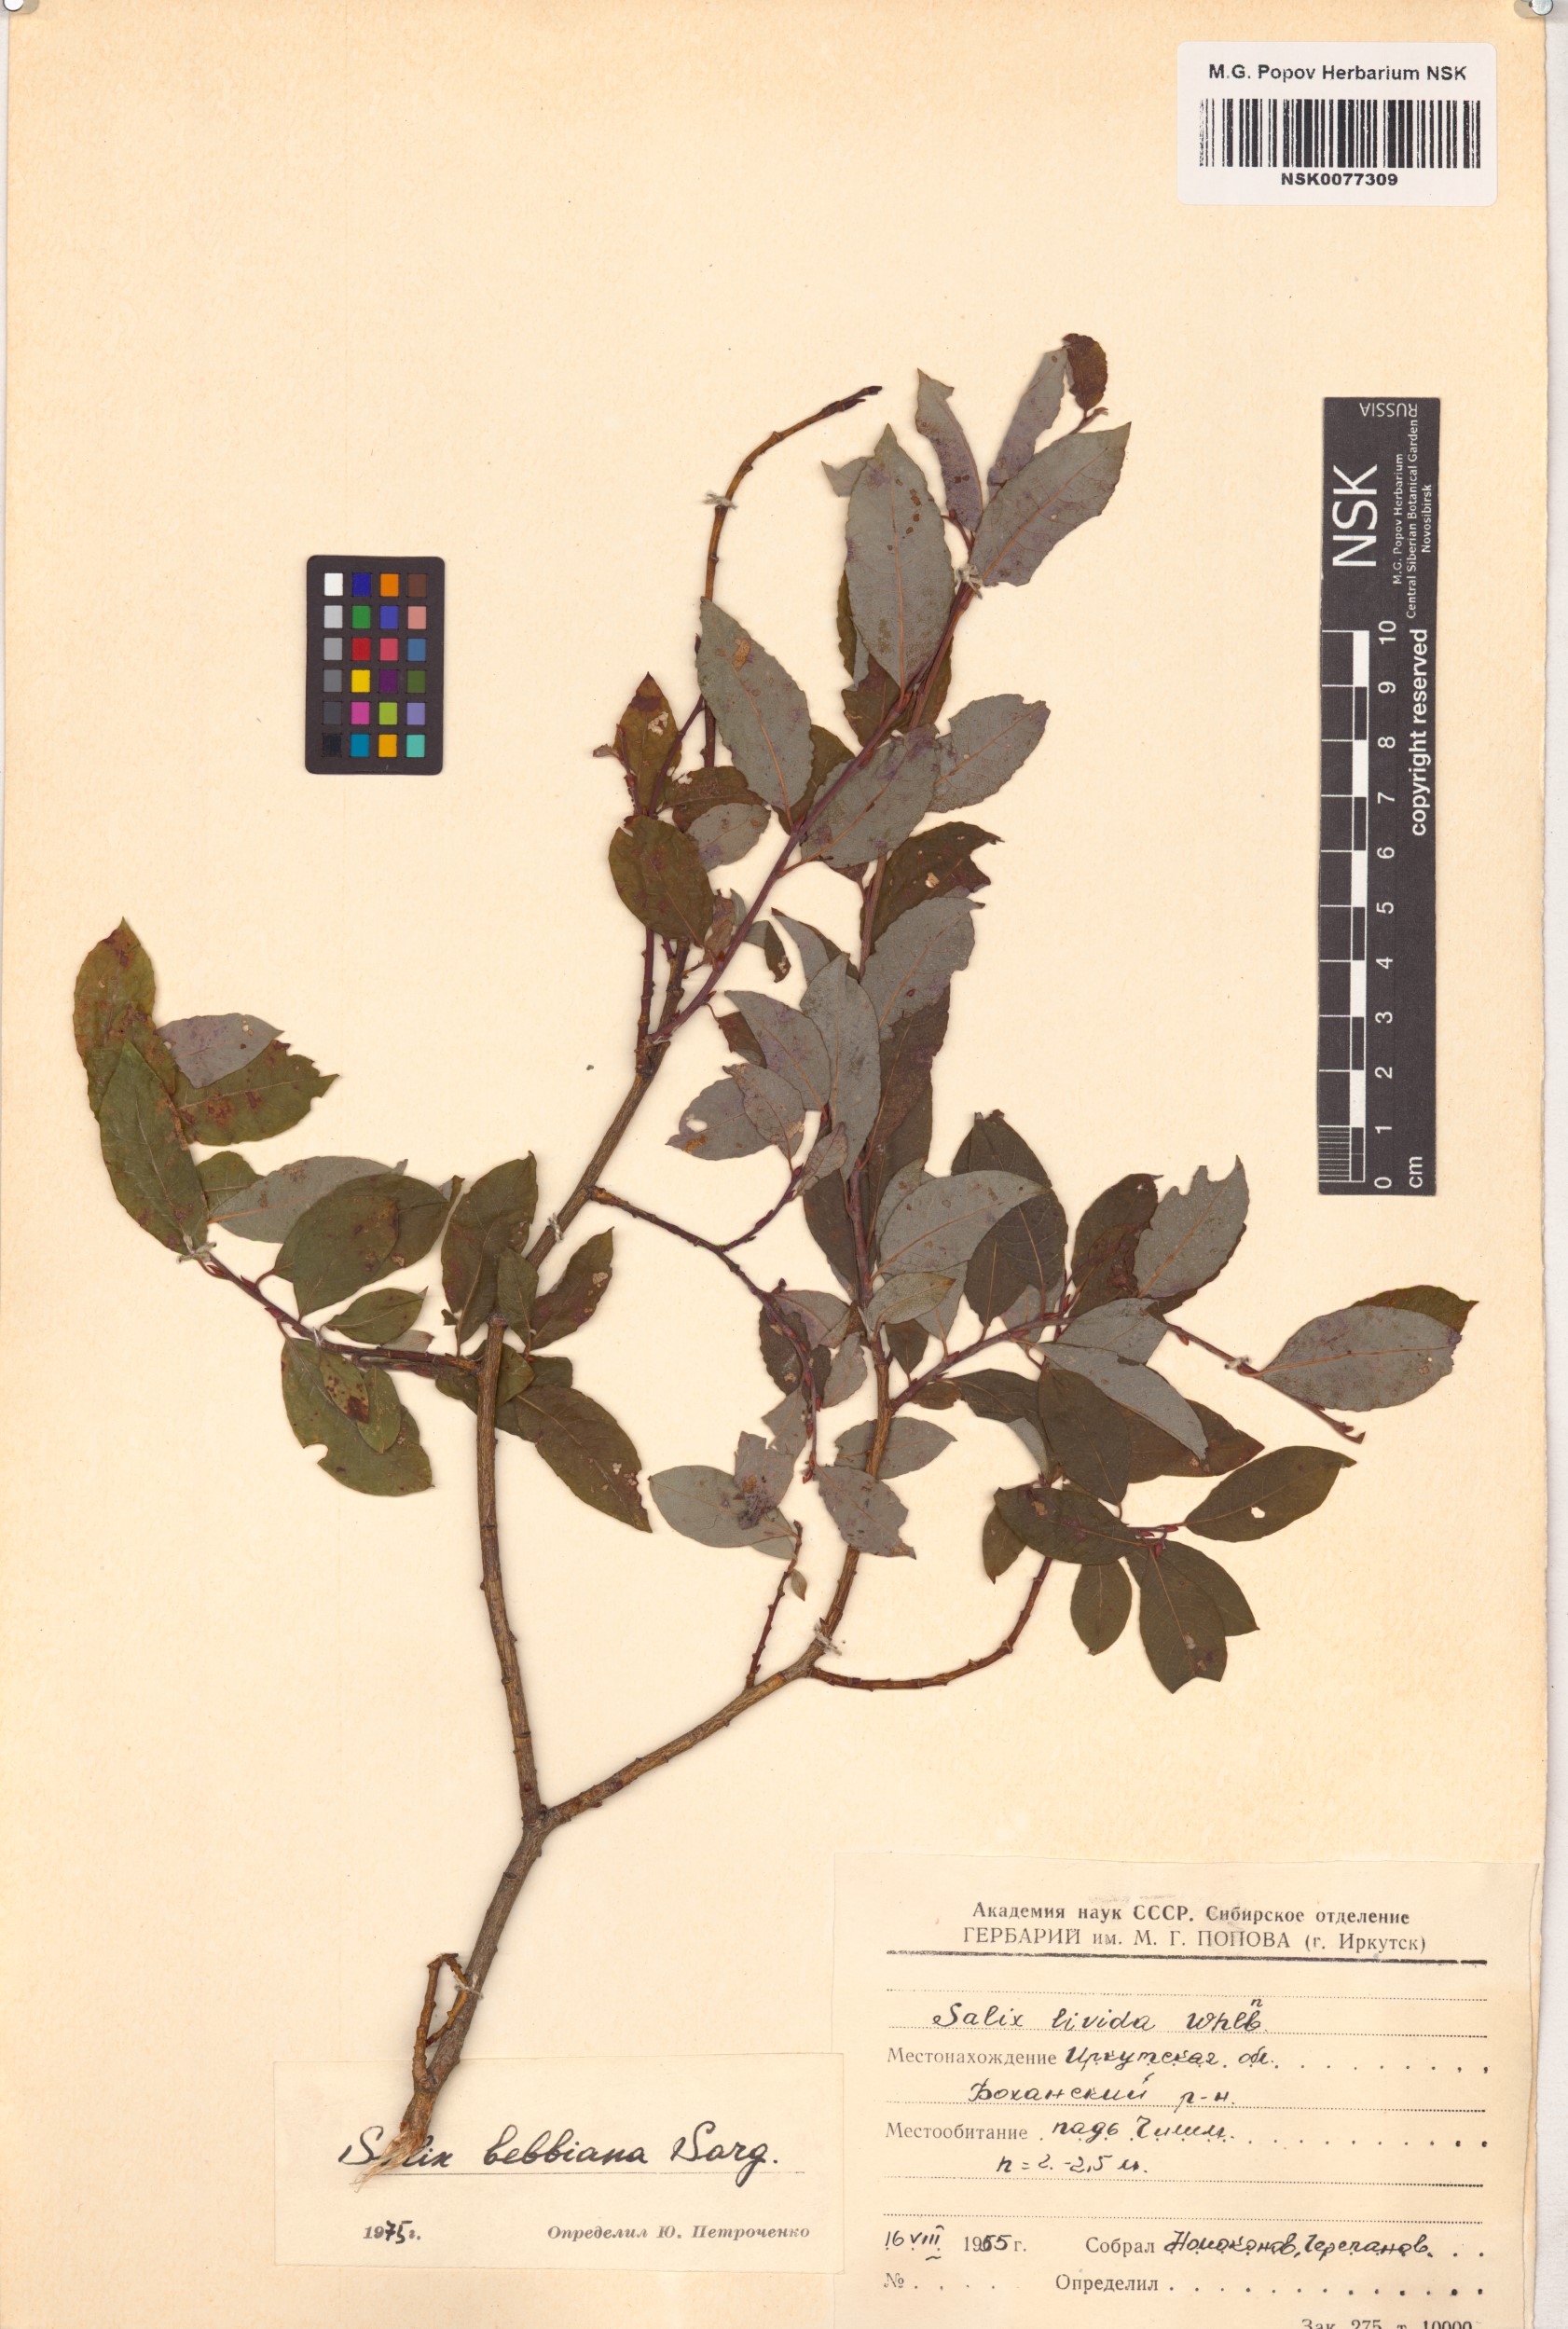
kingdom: Plantae
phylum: Tracheophyta
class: Magnoliopsida
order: Malpighiales
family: Salicaceae
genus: Salix
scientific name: Salix bebbiana
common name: Bebb's willow
